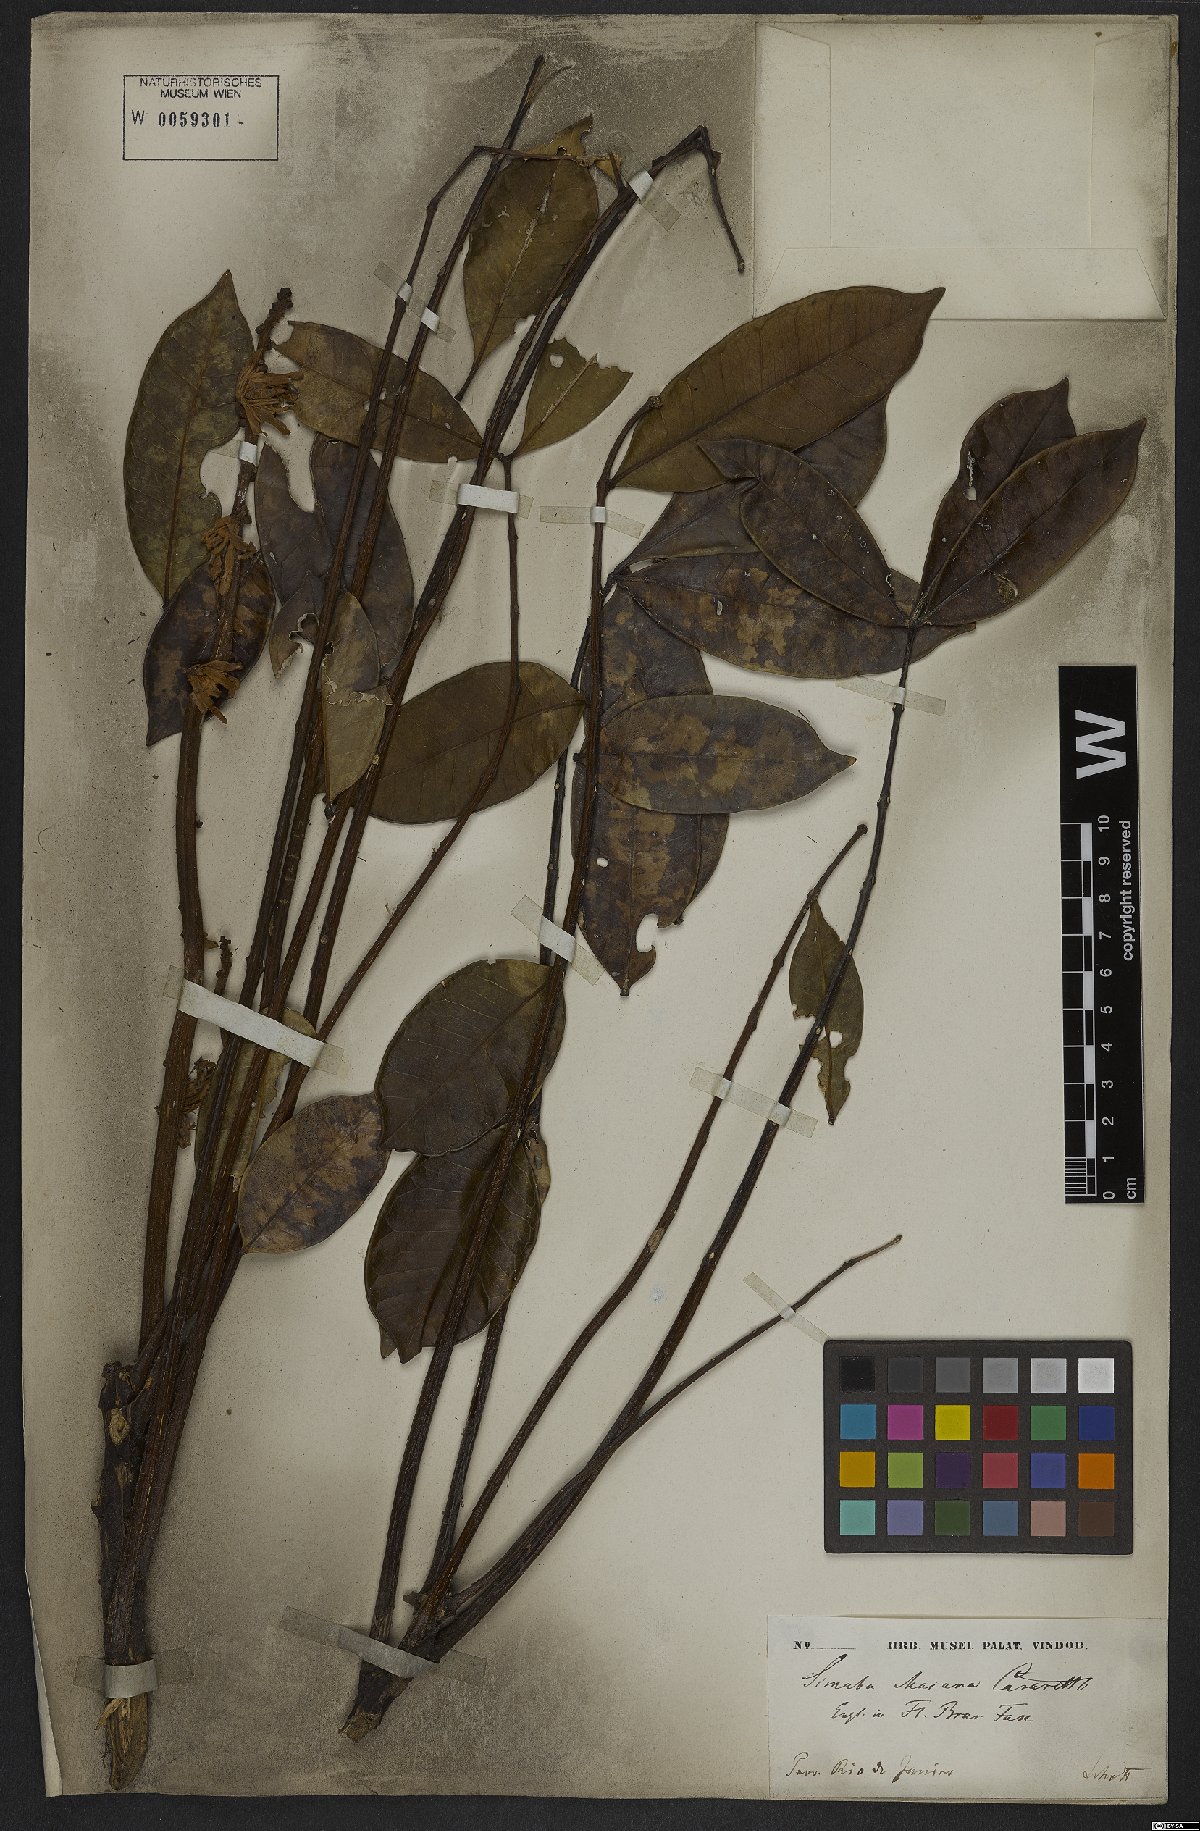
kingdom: Plantae
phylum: Tracheophyta
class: Magnoliopsida
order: Sapindales
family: Simaroubaceae
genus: Homalolepis
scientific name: Homalolepis maiana
